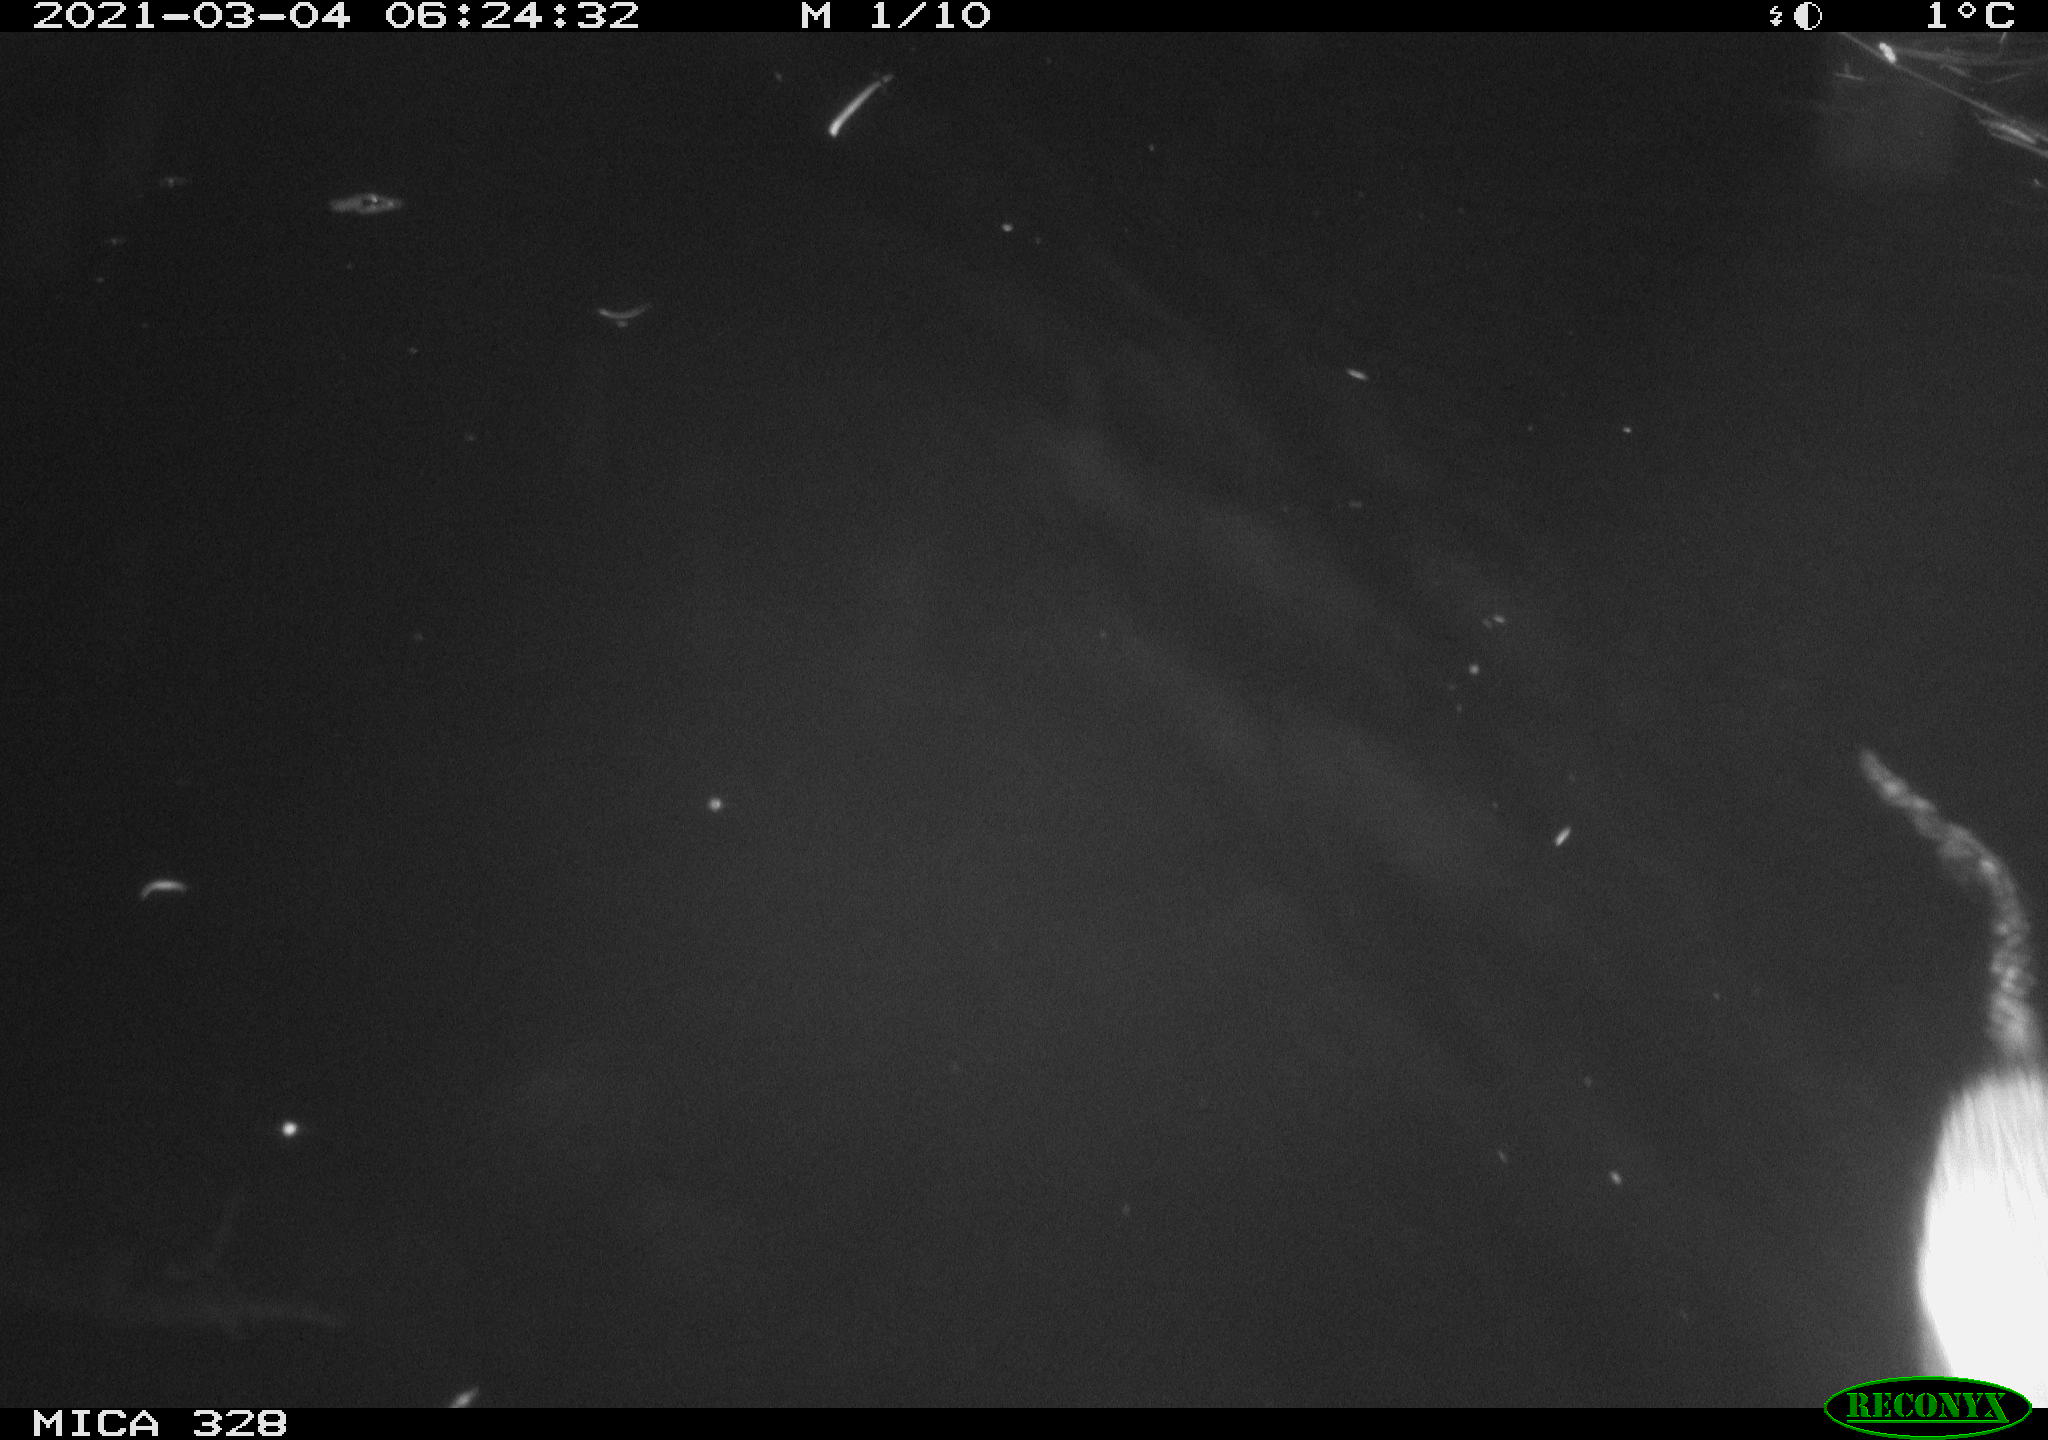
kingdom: Animalia
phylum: Chordata
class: Mammalia
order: Rodentia
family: Cricetidae
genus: Ondatra
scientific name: Ondatra zibethicus
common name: Muskrat
